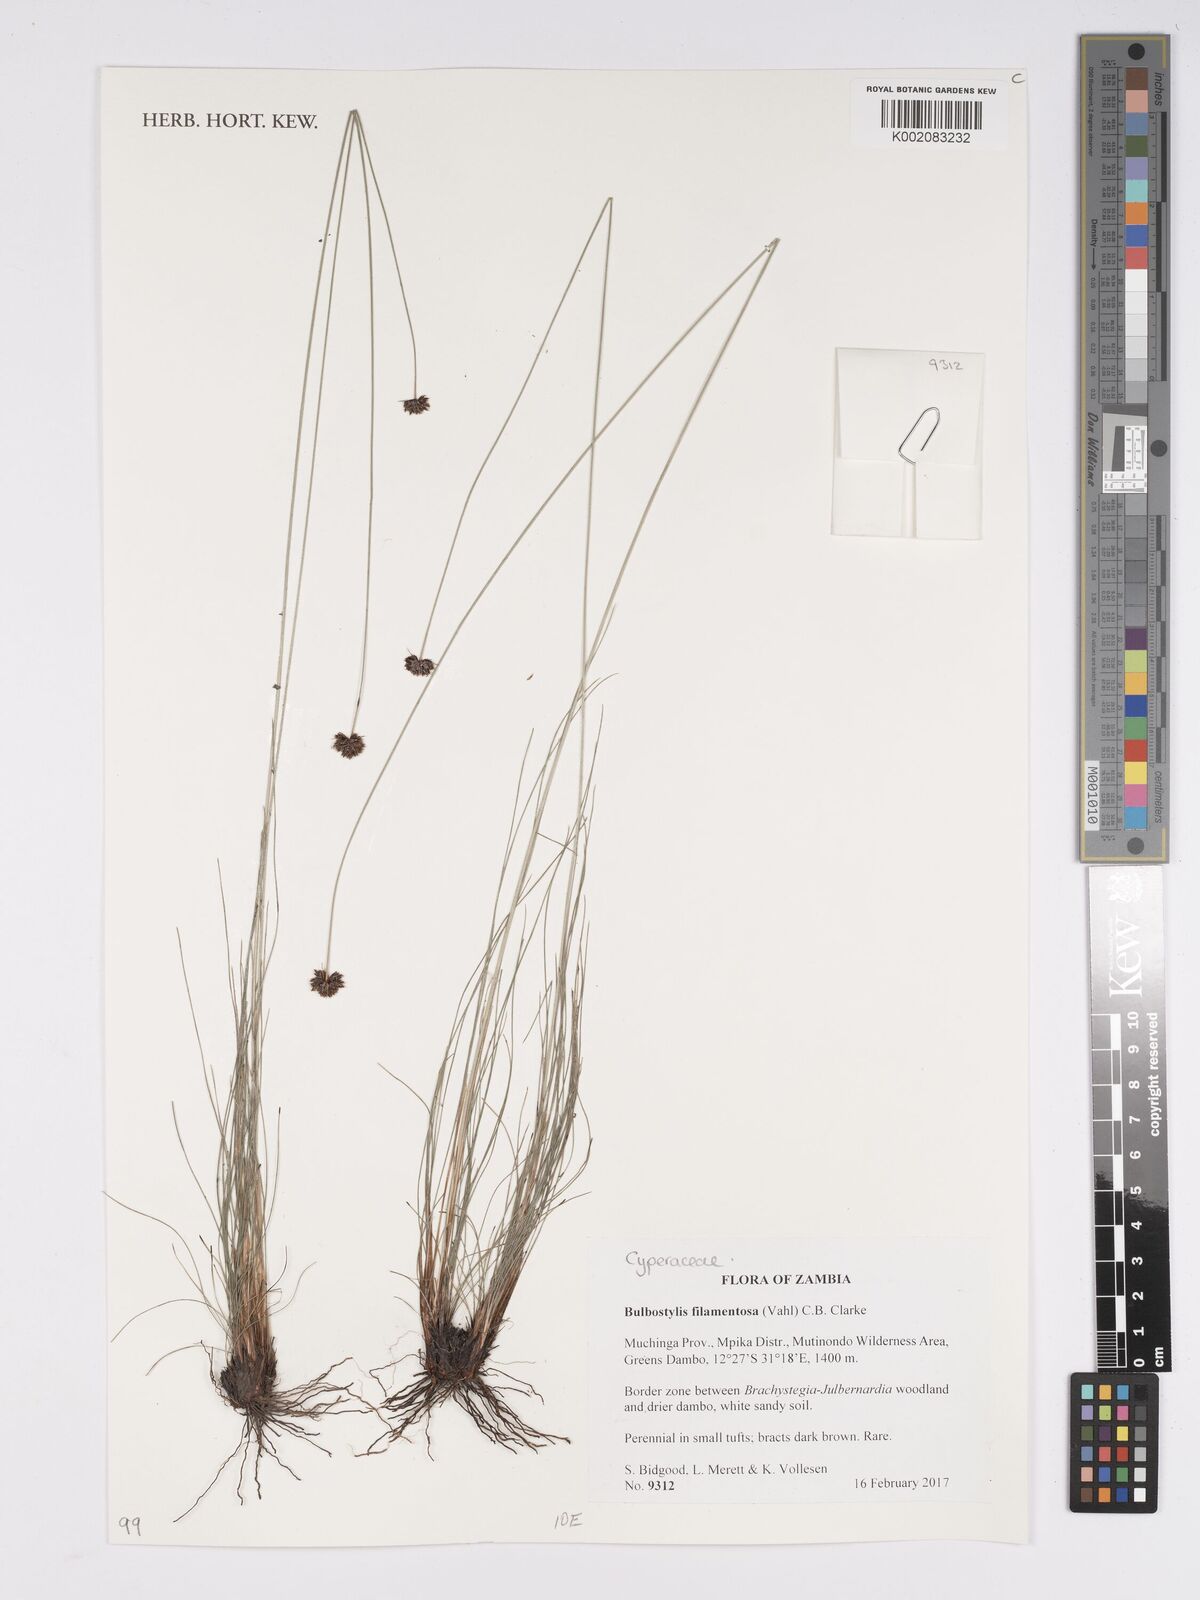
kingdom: Plantae
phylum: Tracheophyta
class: Liliopsida
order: Poales
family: Cyperaceae
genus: Bulbostylis
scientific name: Bulbostylis filamentosa
